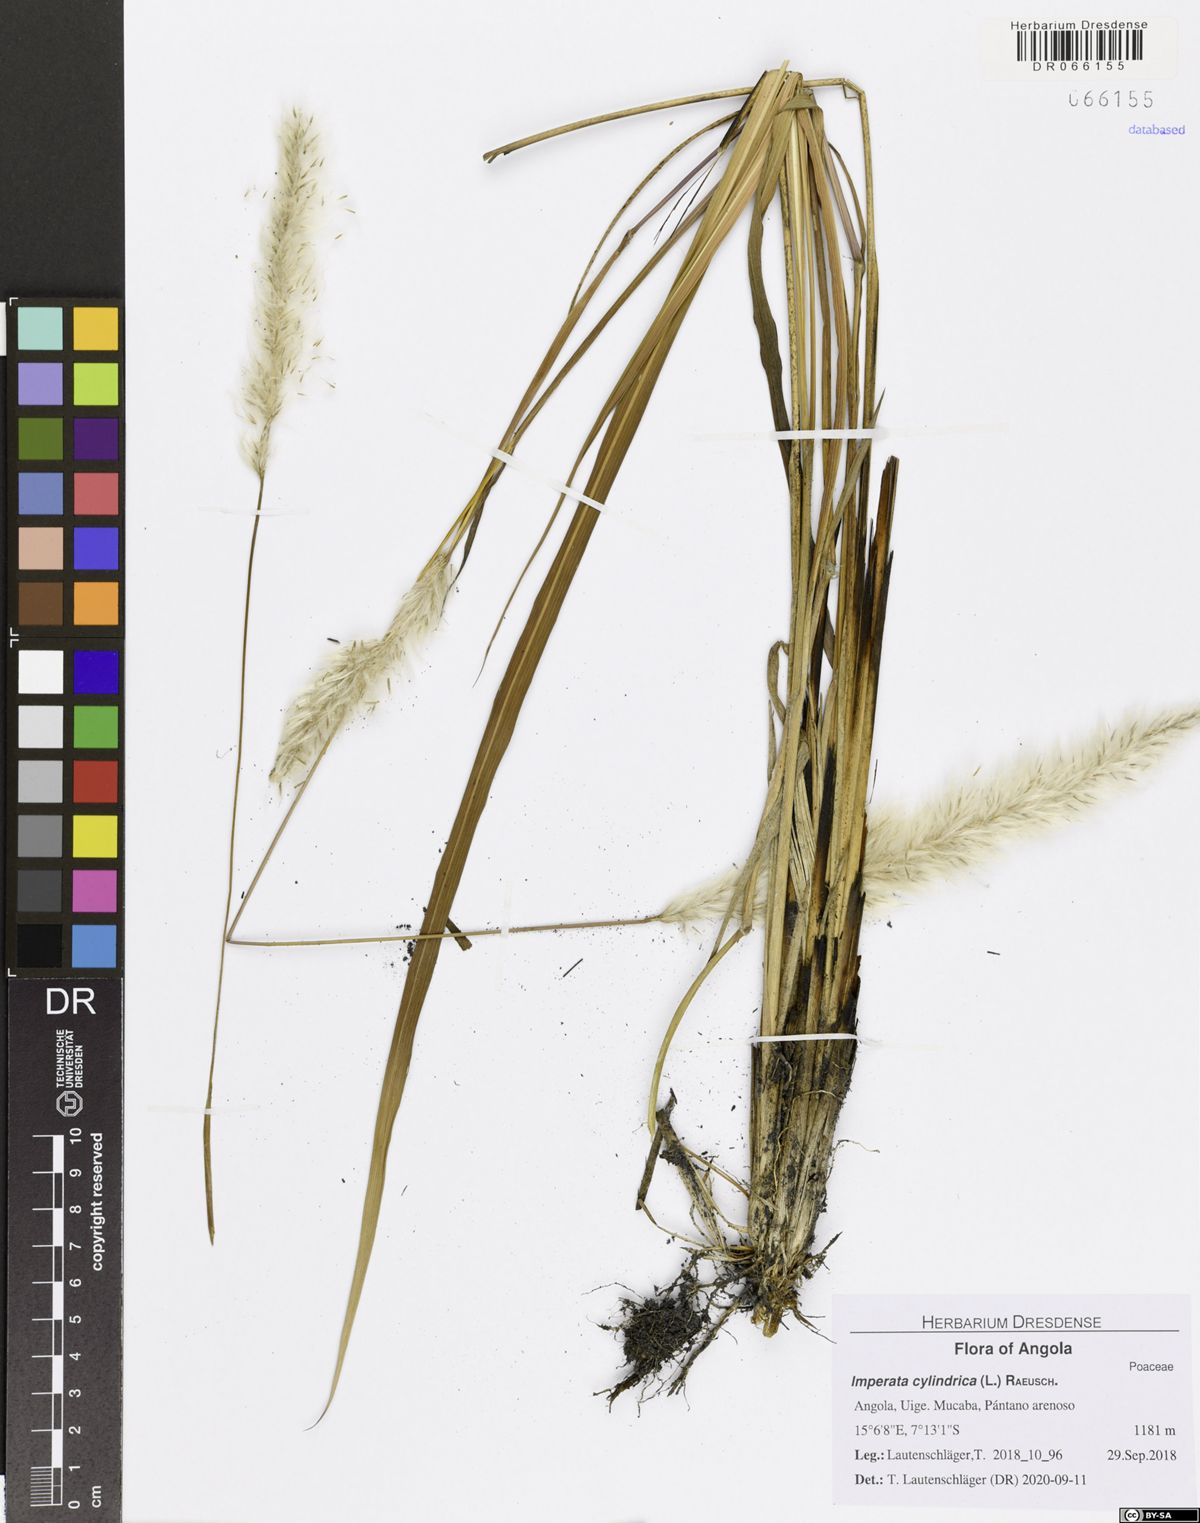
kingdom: Plantae
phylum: Tracheophyta
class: Liliopsida
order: Poales
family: Poaceae
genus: Imperata
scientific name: Imperata cylindrica
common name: Cogongrass
